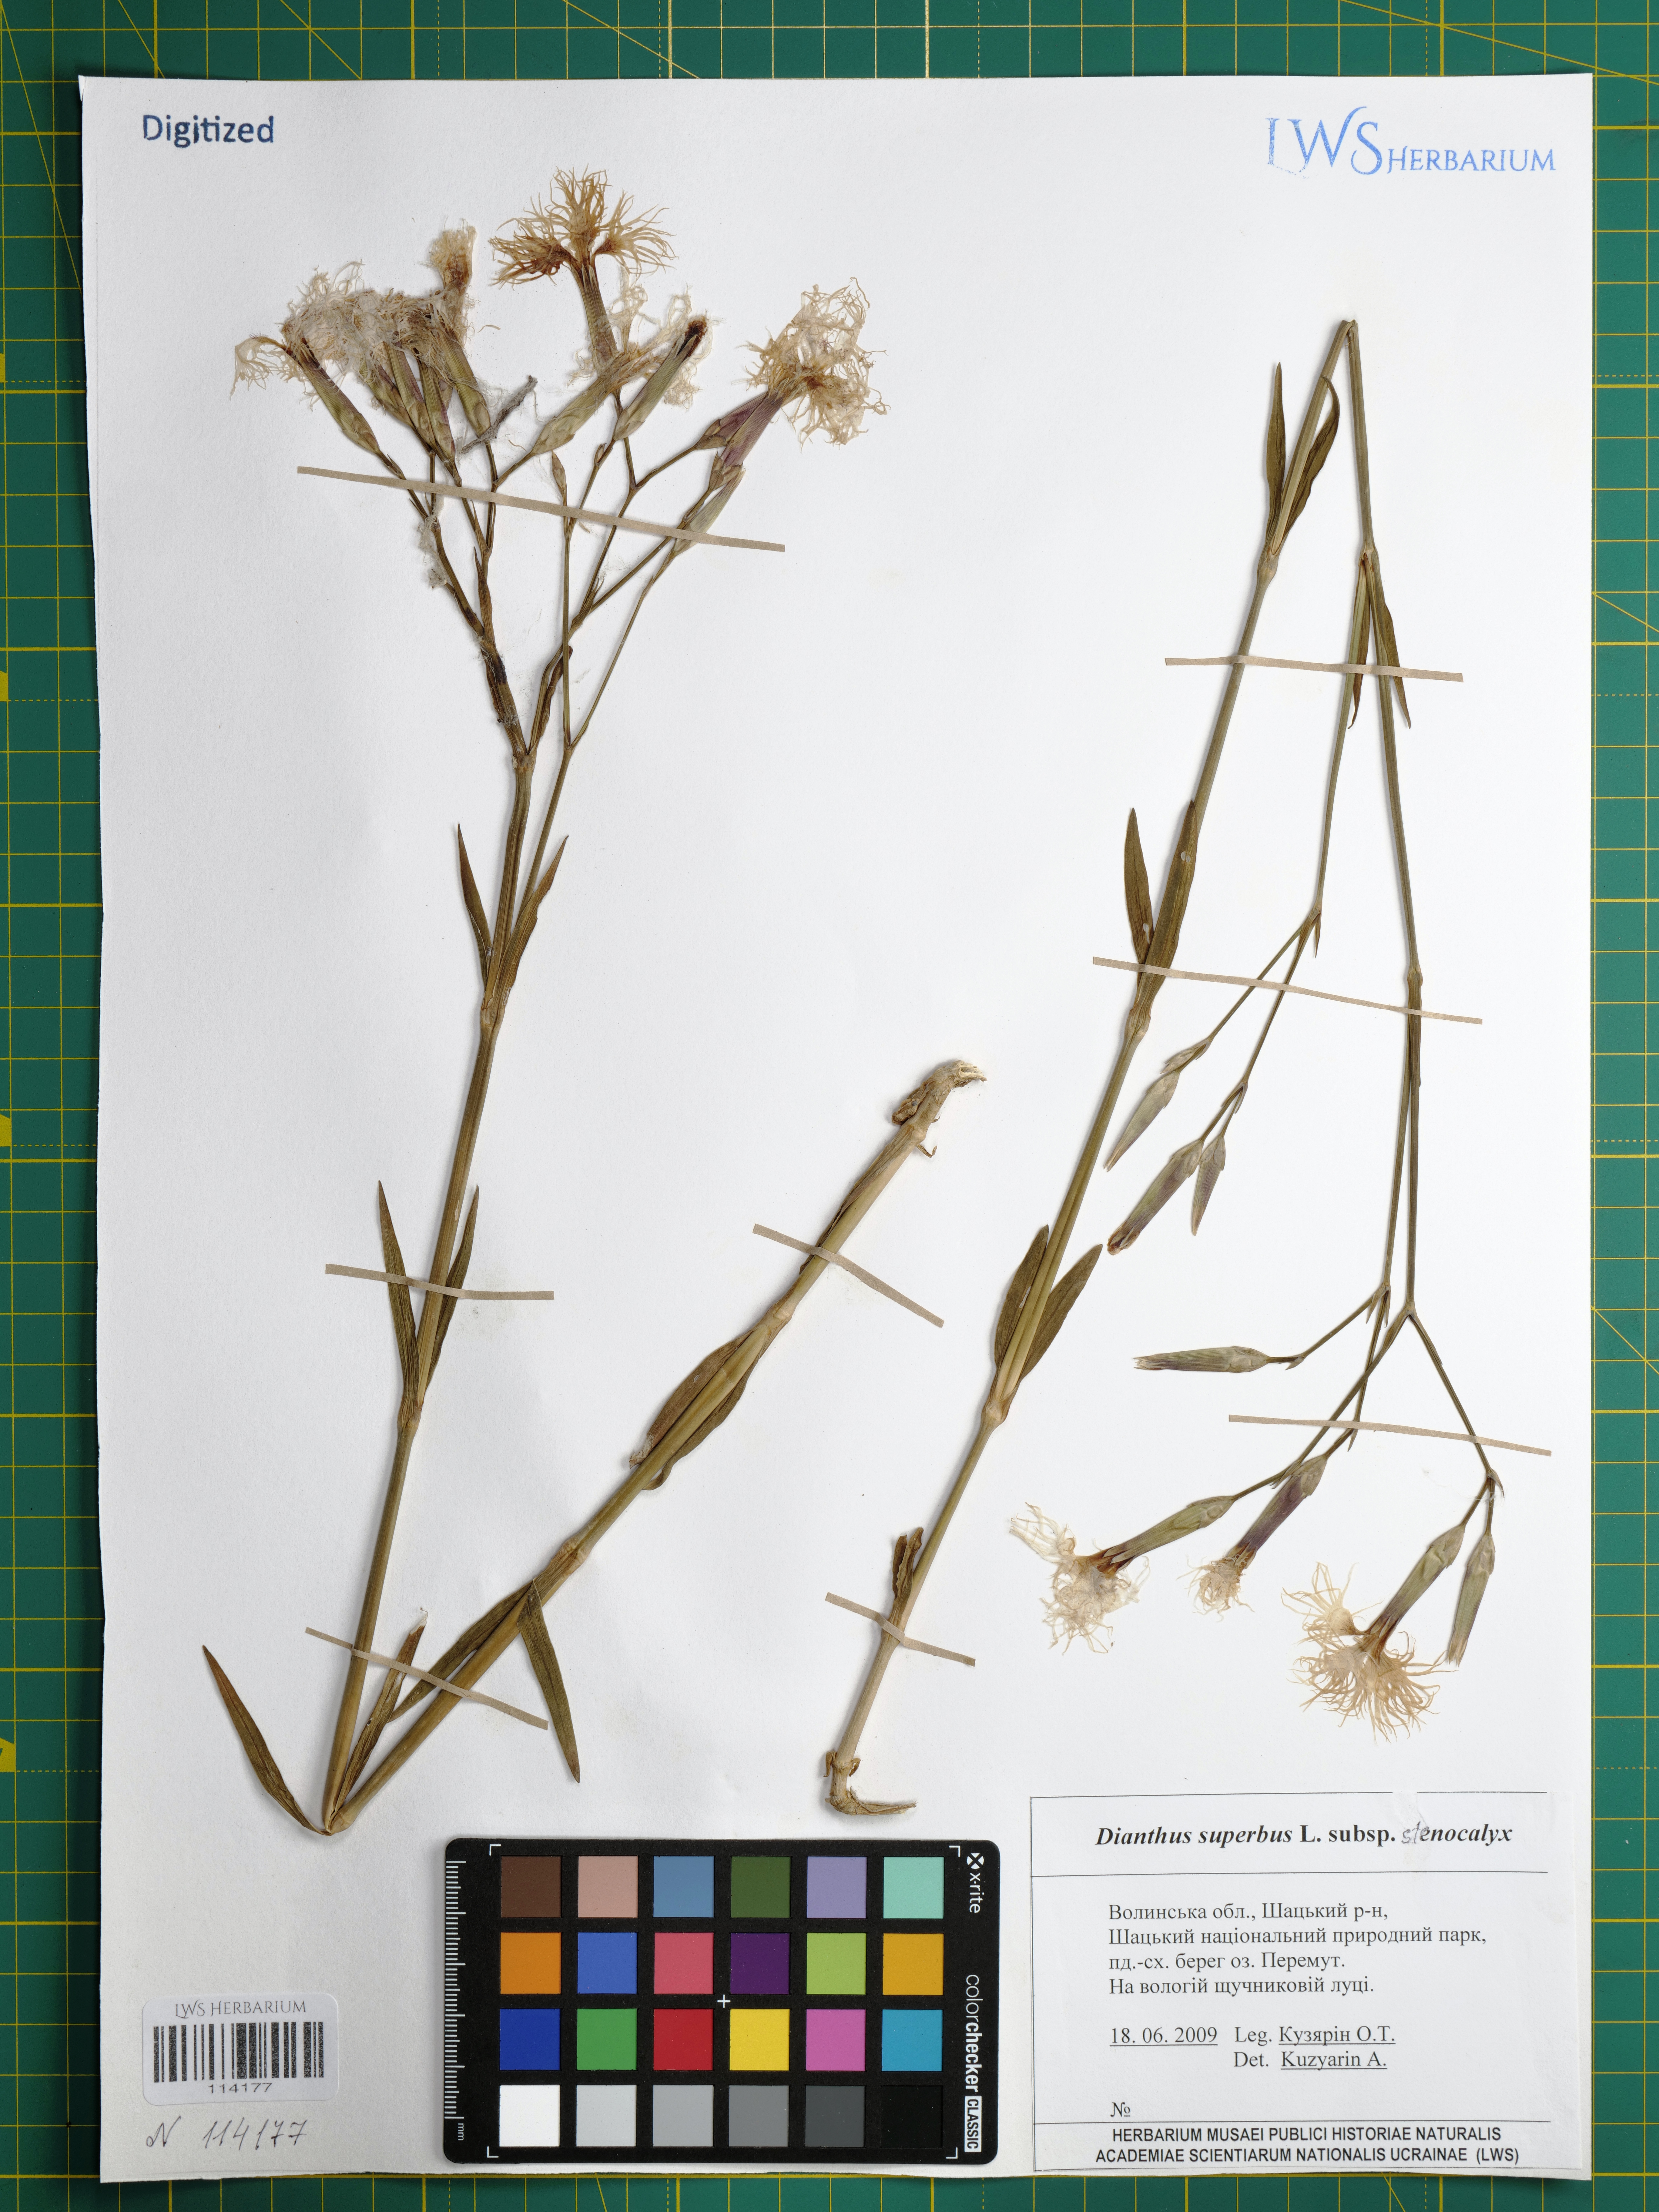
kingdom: Plantae
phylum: Tracheophyta
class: Magnoliopsida
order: Caryophyllales
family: Caryophyllaceae
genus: Dianthus
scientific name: Dianthus superbus
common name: Fringed pink
